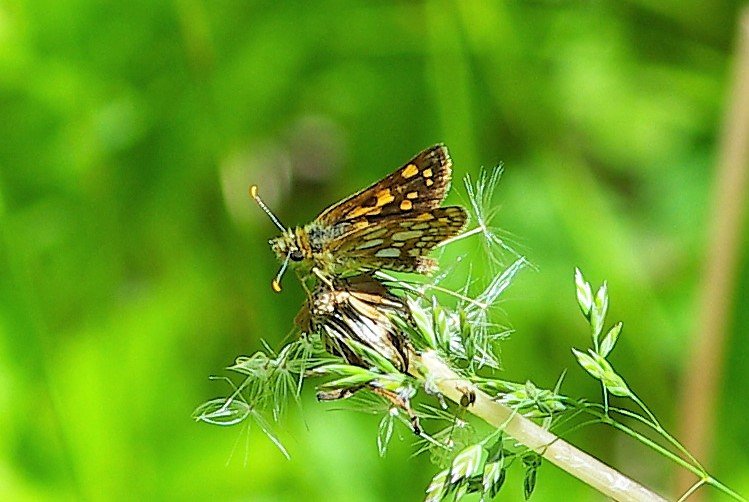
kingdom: Animalia
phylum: Arthropoda
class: Insecta
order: Lepidoptera
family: Hesperiidae
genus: Carterocephalus
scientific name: Carterocephalus palaemon
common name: Chequered Skipper
